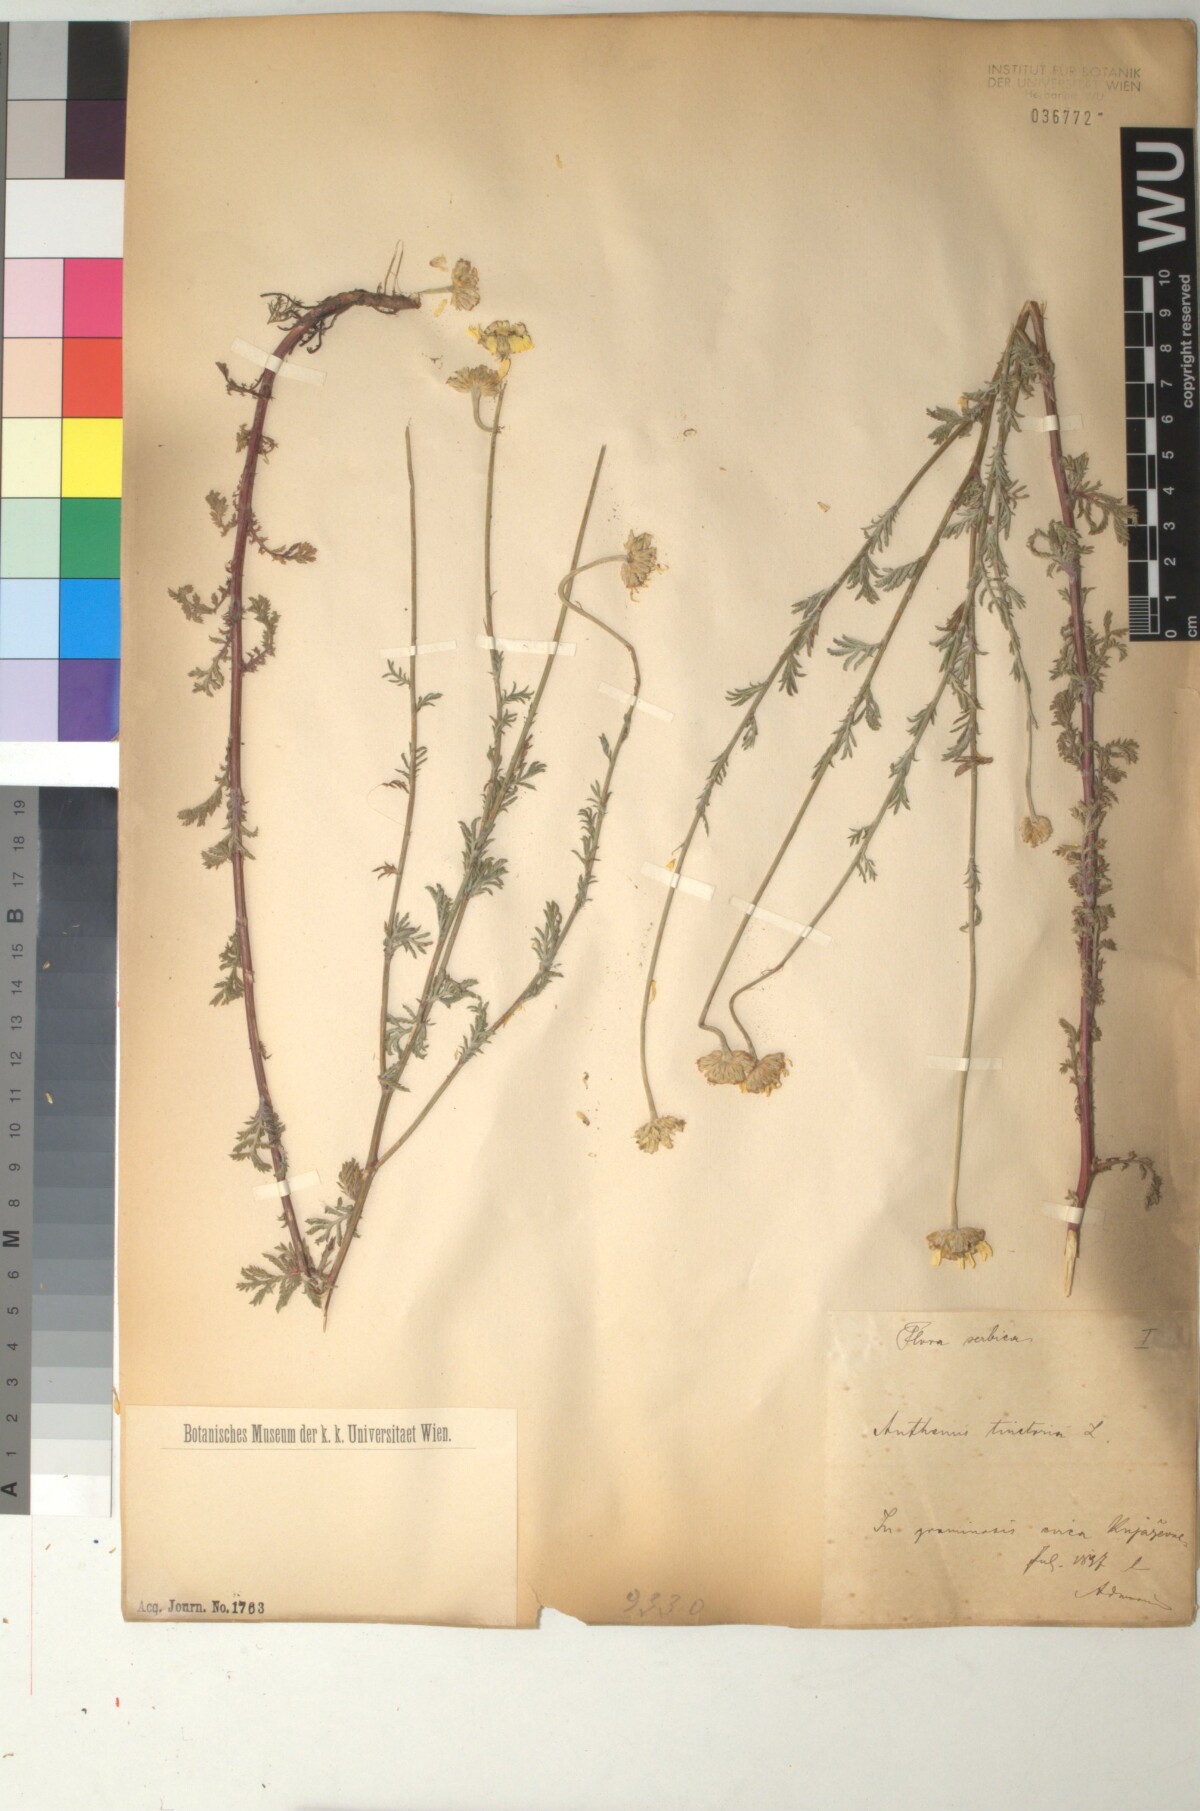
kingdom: Plantae
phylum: Tracheophyta
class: Magnoliopsida
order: Asterales
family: Asteraceae
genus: Cota
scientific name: Cota tinctoria
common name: Golden chamomile
